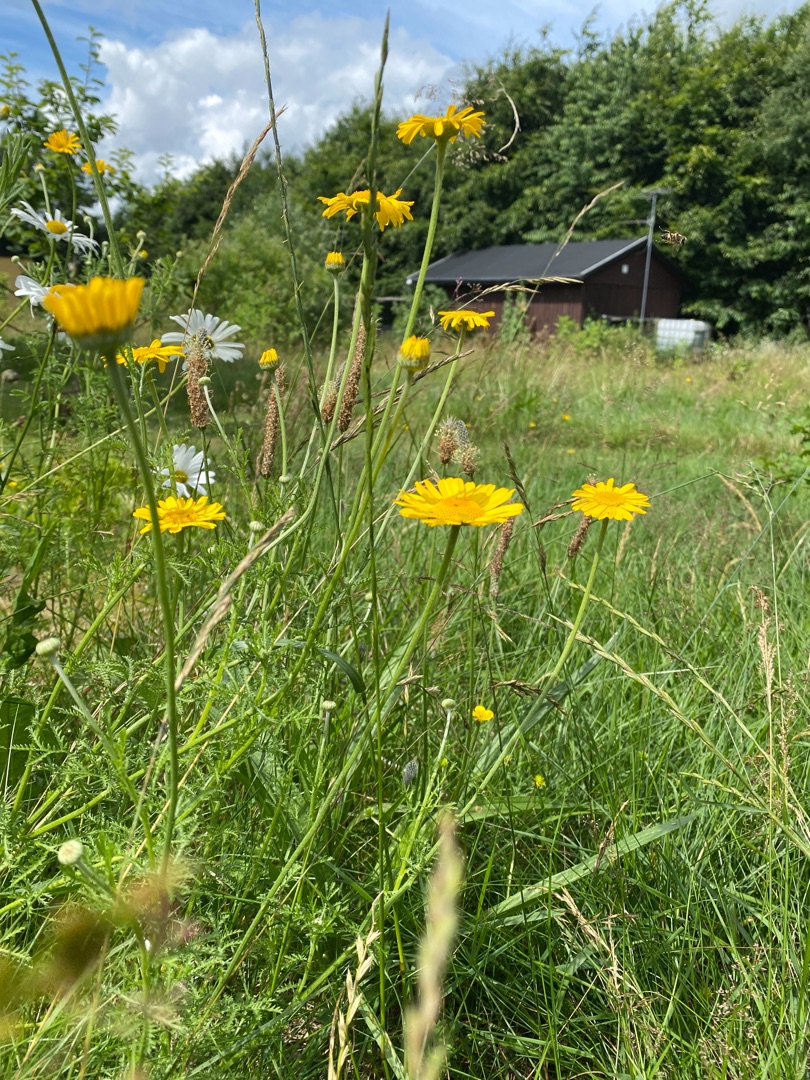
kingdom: Plantae
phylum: Tracheophyta
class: Magnoliopsida
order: Asterales
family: Asteraceae
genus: Cota
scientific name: Cota tinctoria
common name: Farve-gåseurt
